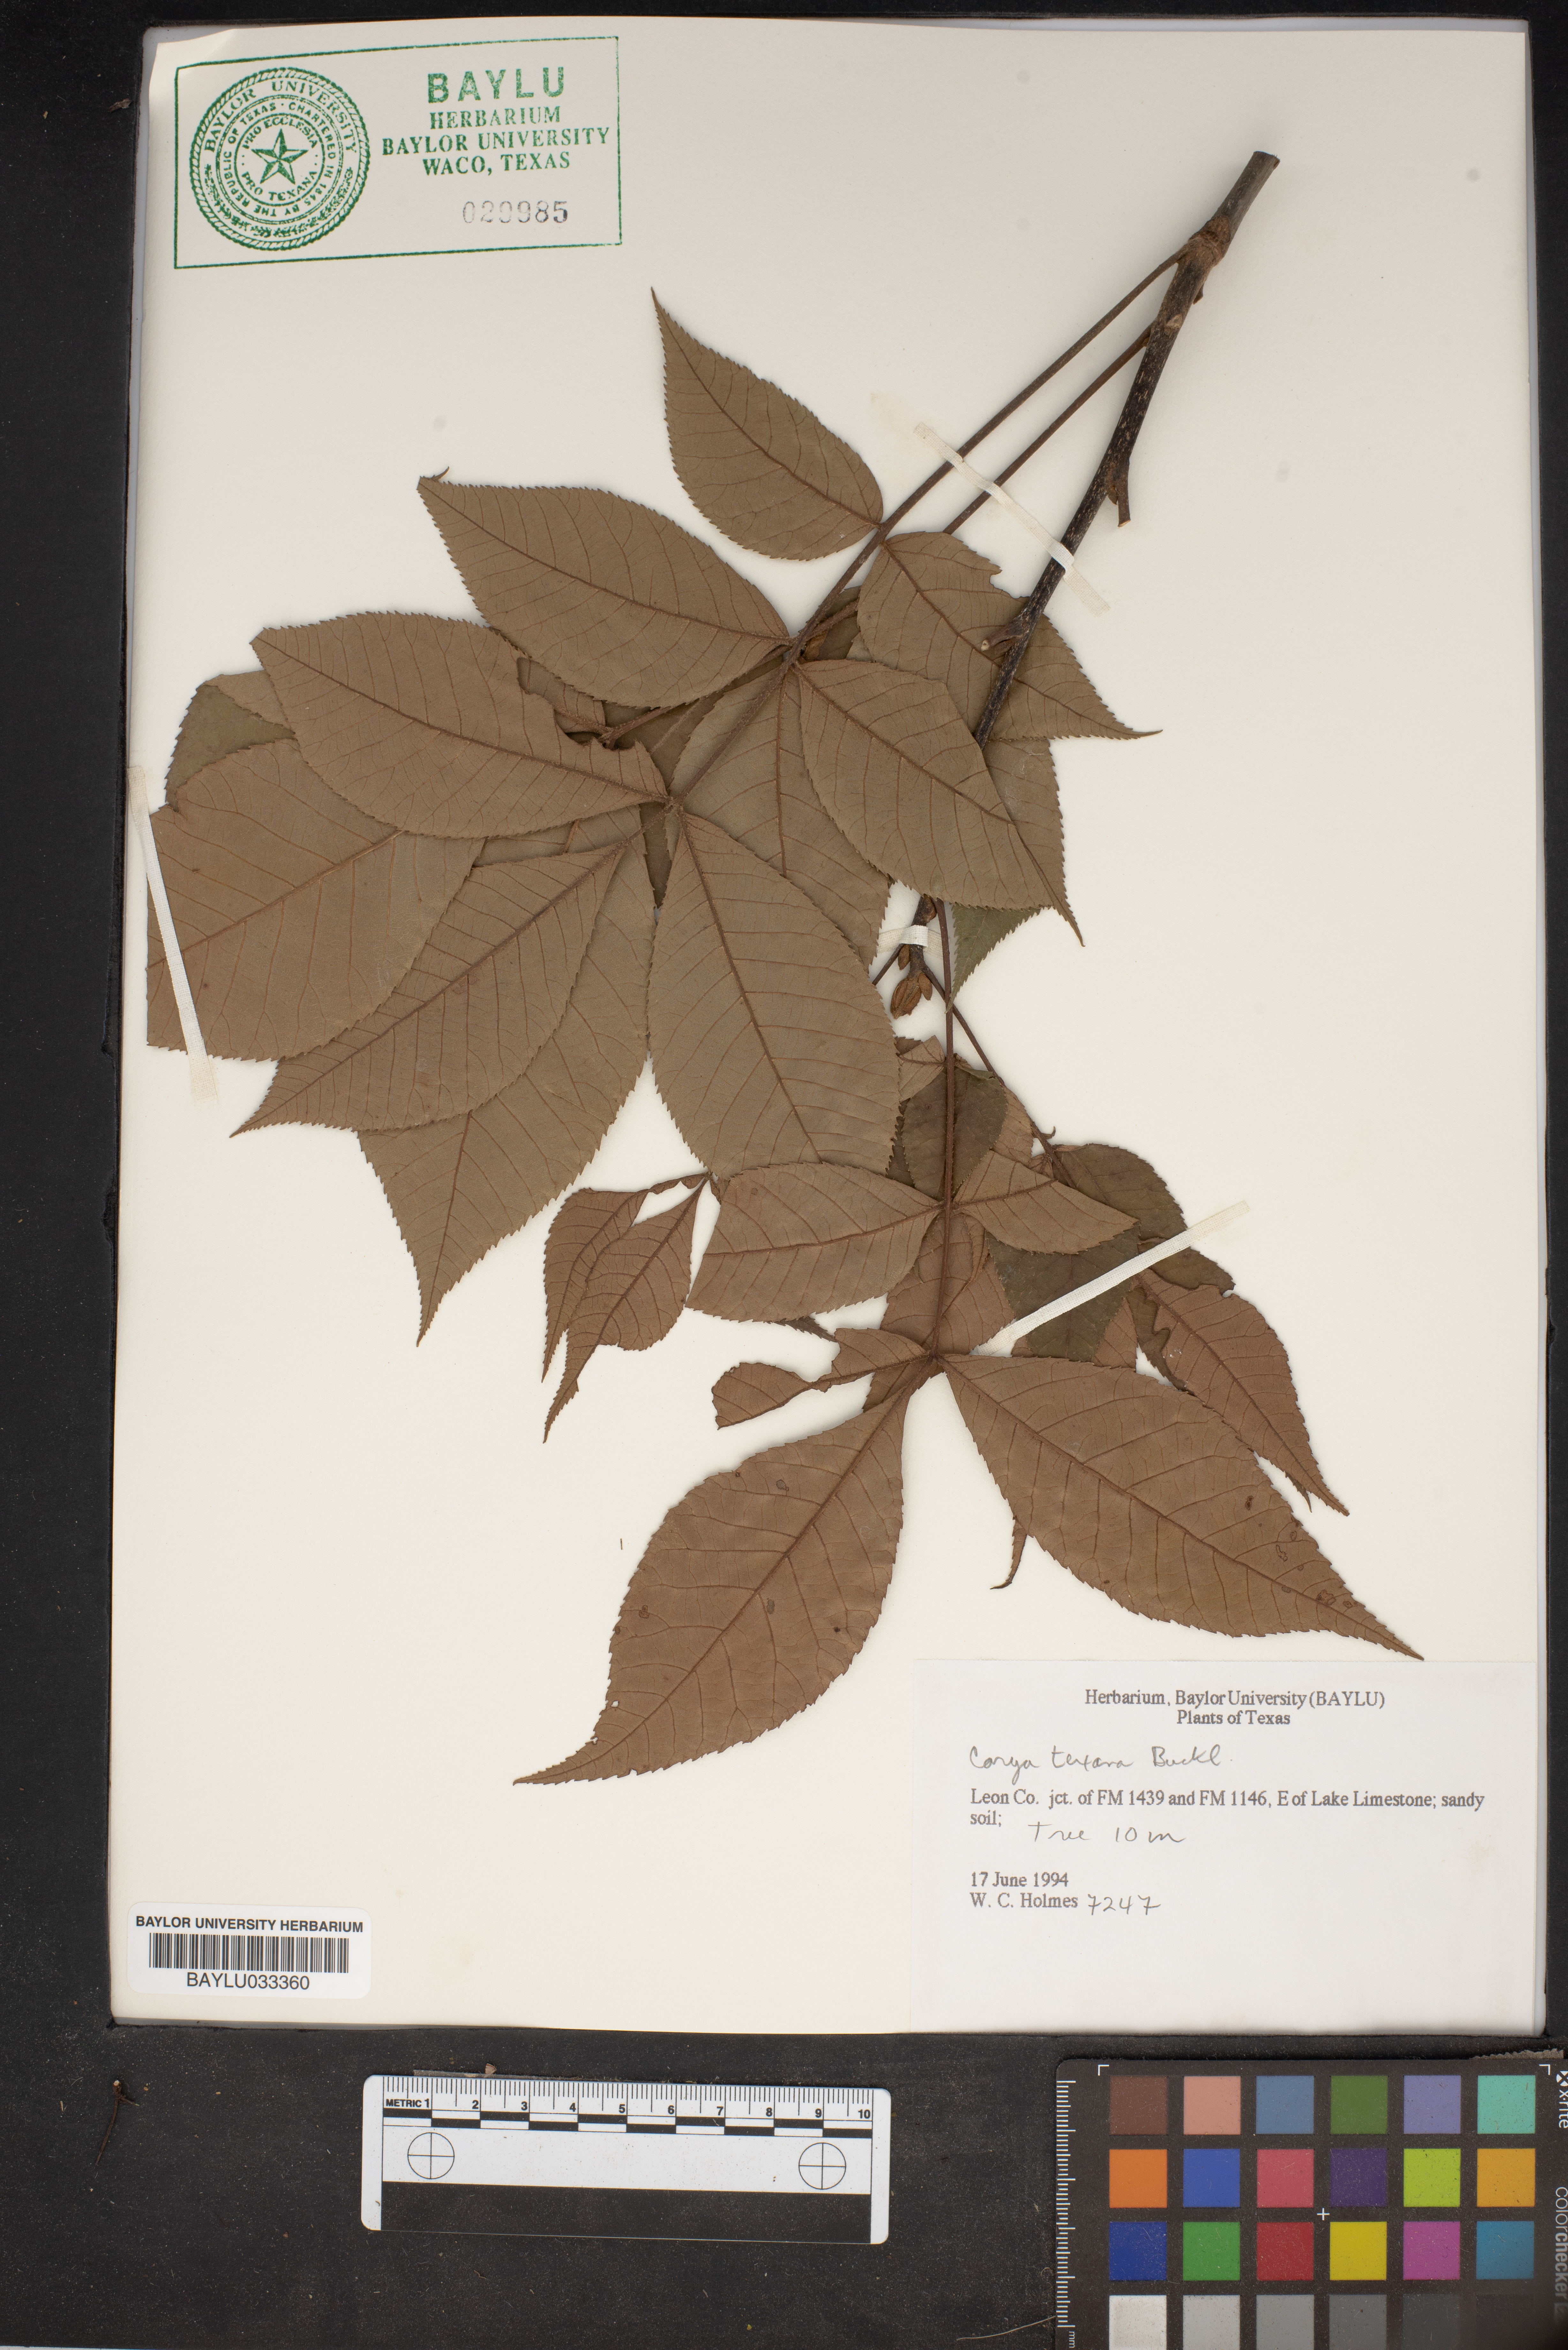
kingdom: Plantae
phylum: Tracheophyta
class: Magnoliopsida
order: Fagales
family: Juglandaceae
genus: Carya
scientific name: Carya texana
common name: Black hickory
